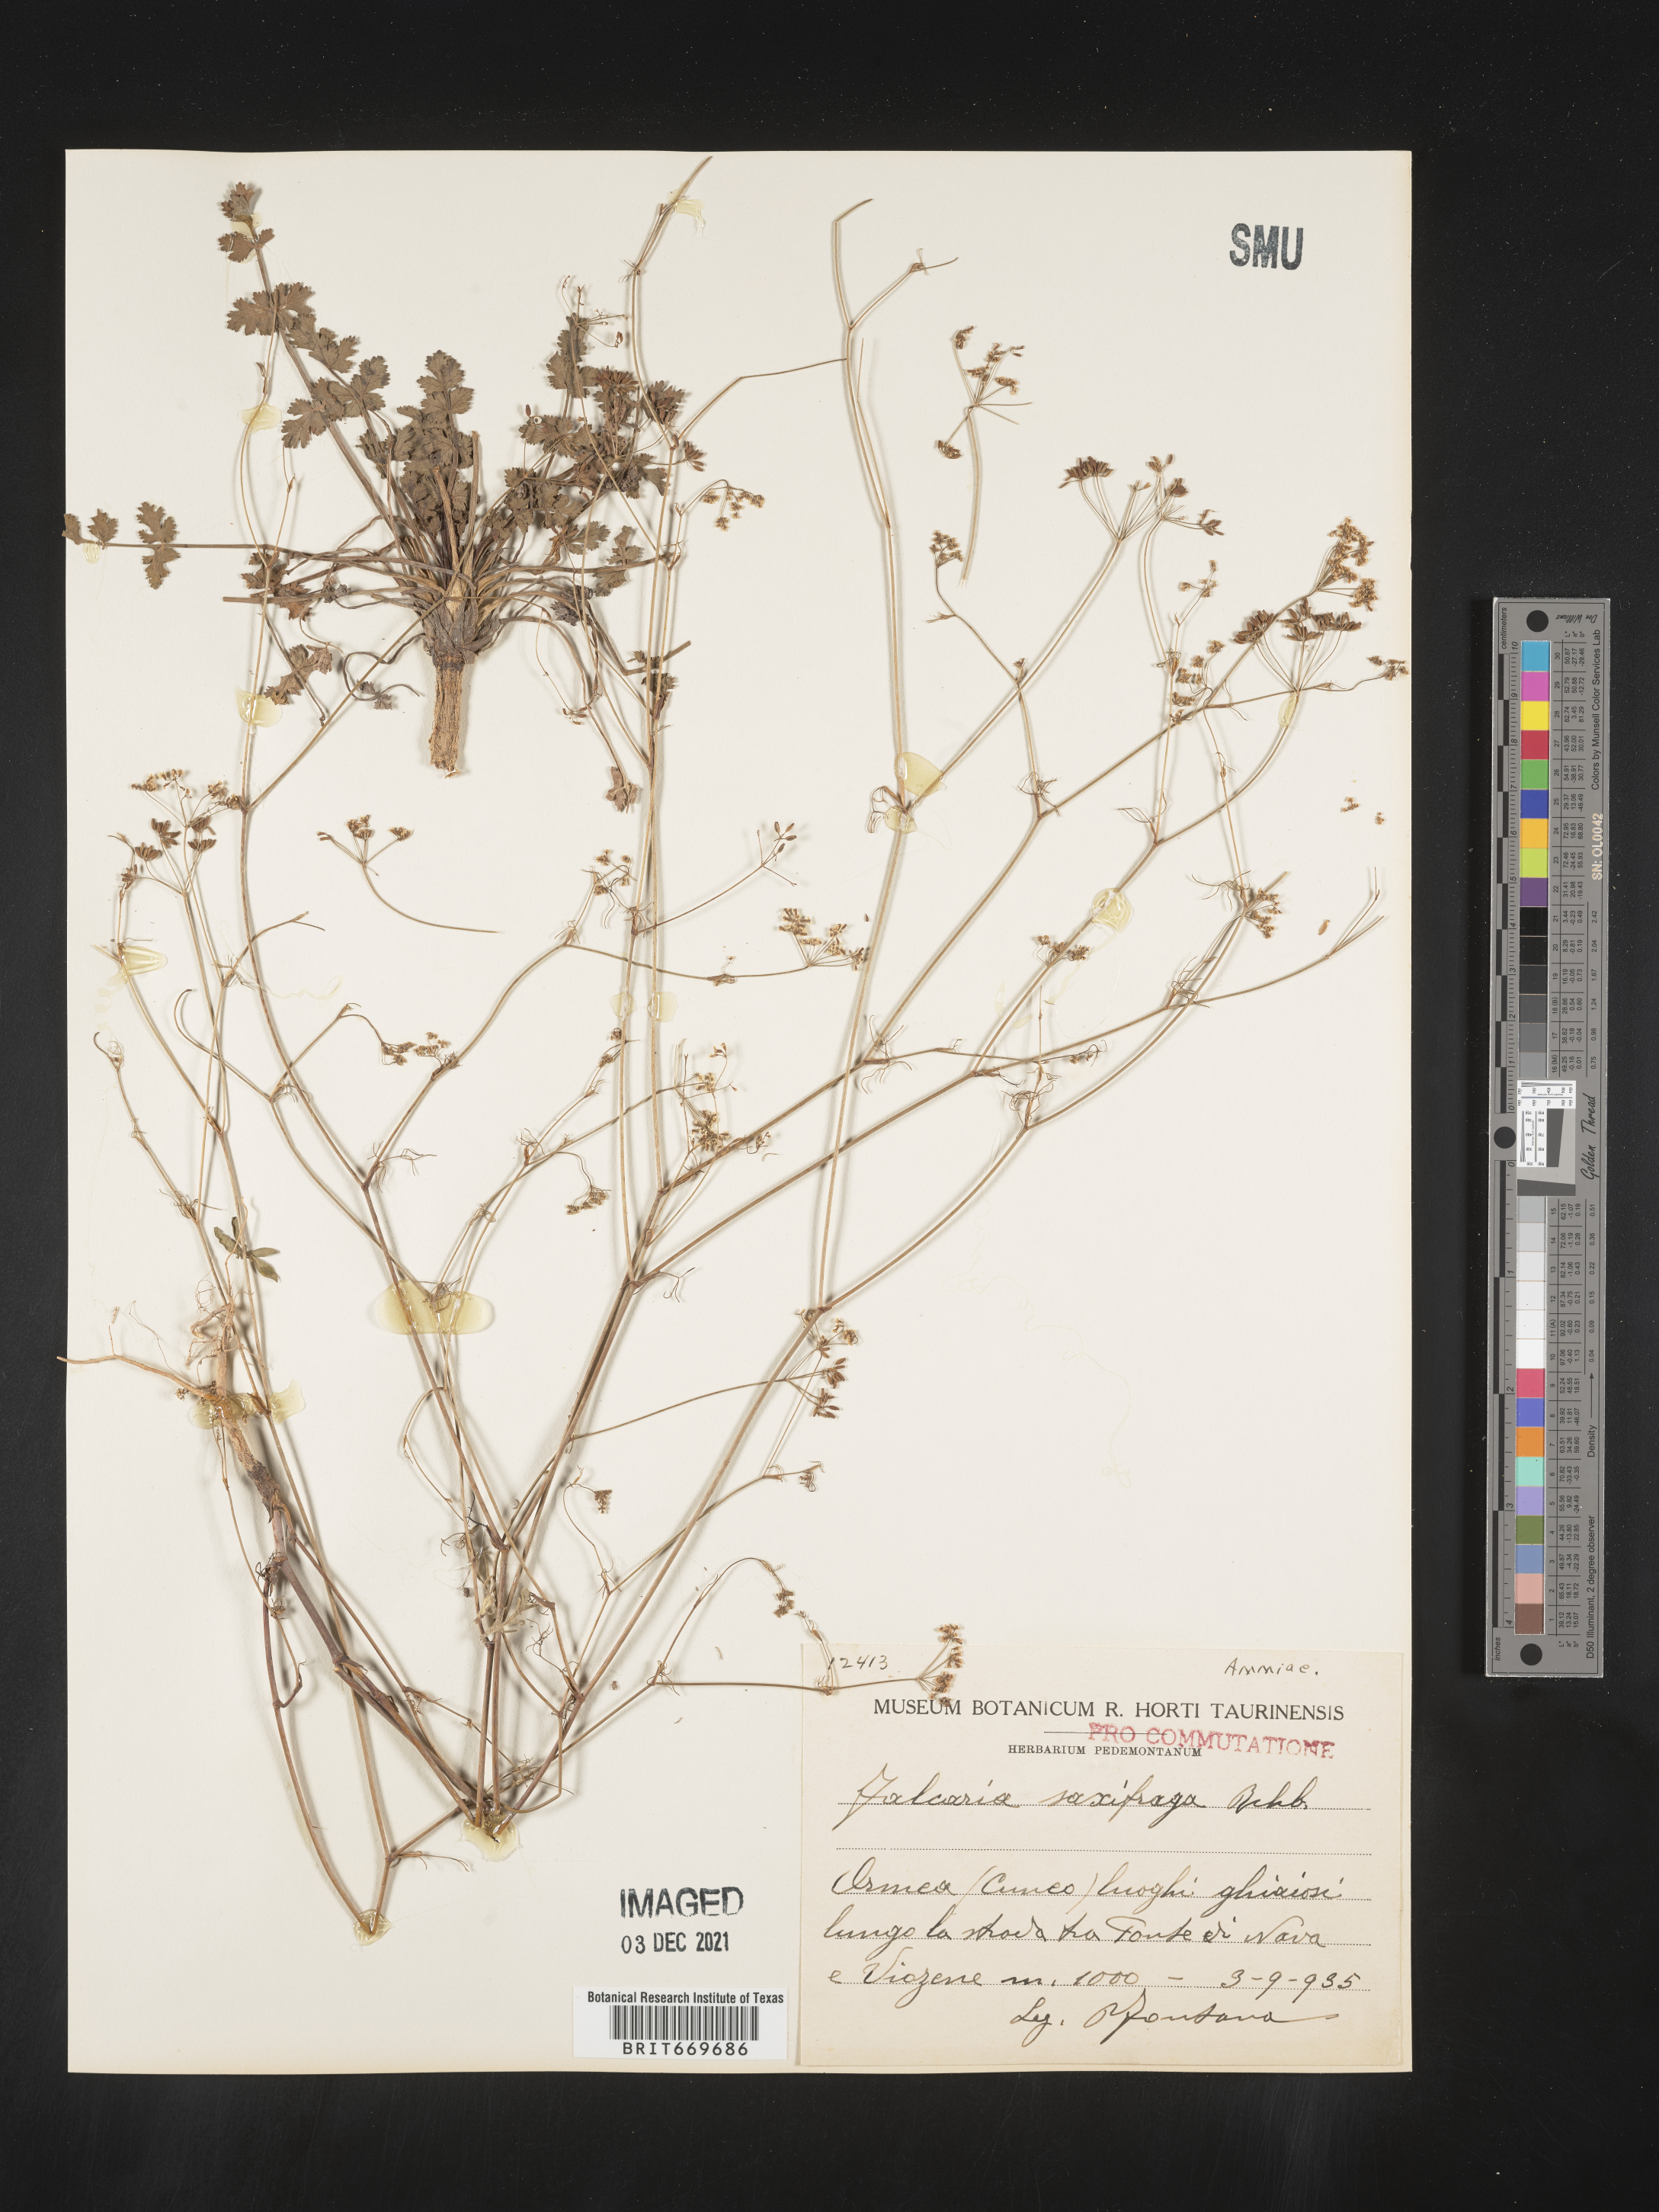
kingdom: Plantae
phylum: Tracheophyta
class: Magnoliopsida
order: Apiales
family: Apiaceae
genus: Falcaria
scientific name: Falcaria
